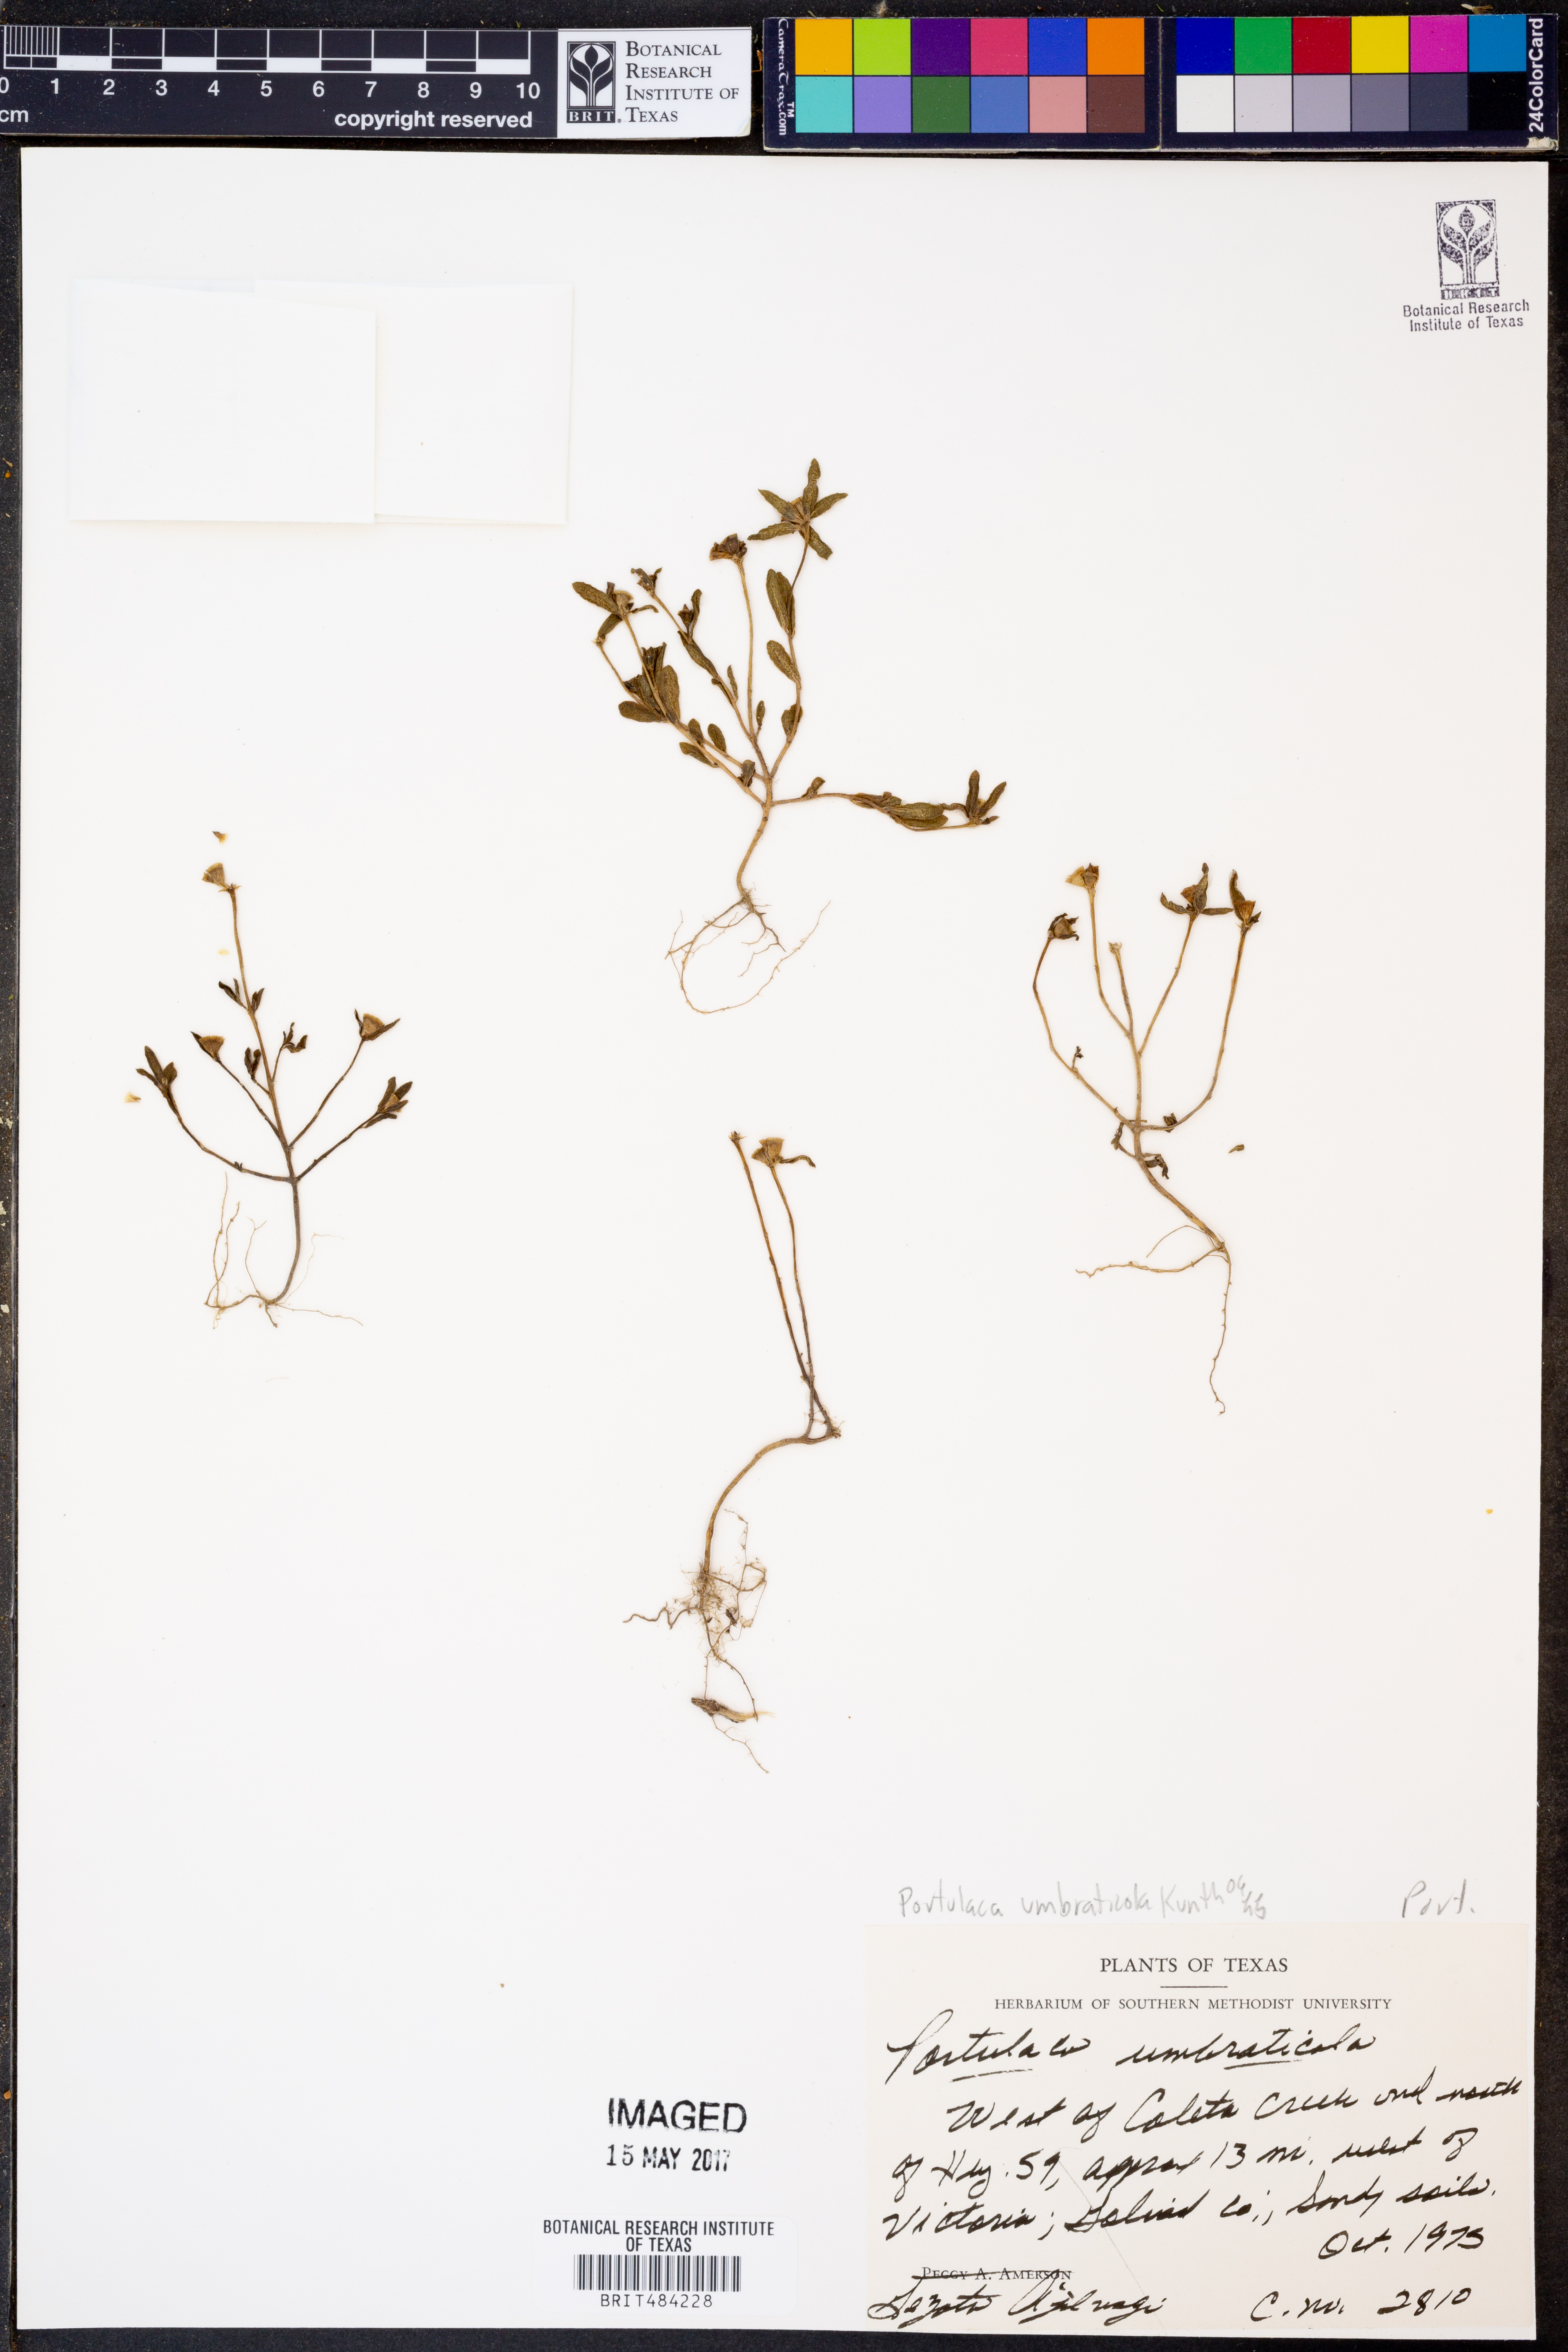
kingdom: Plantae
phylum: Tracheophyta
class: Magnoliopsida
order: Caryophyllales
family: Portulacaceae
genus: Portulaca
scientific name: Portulaca umbraticola
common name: Wingpod purslane
